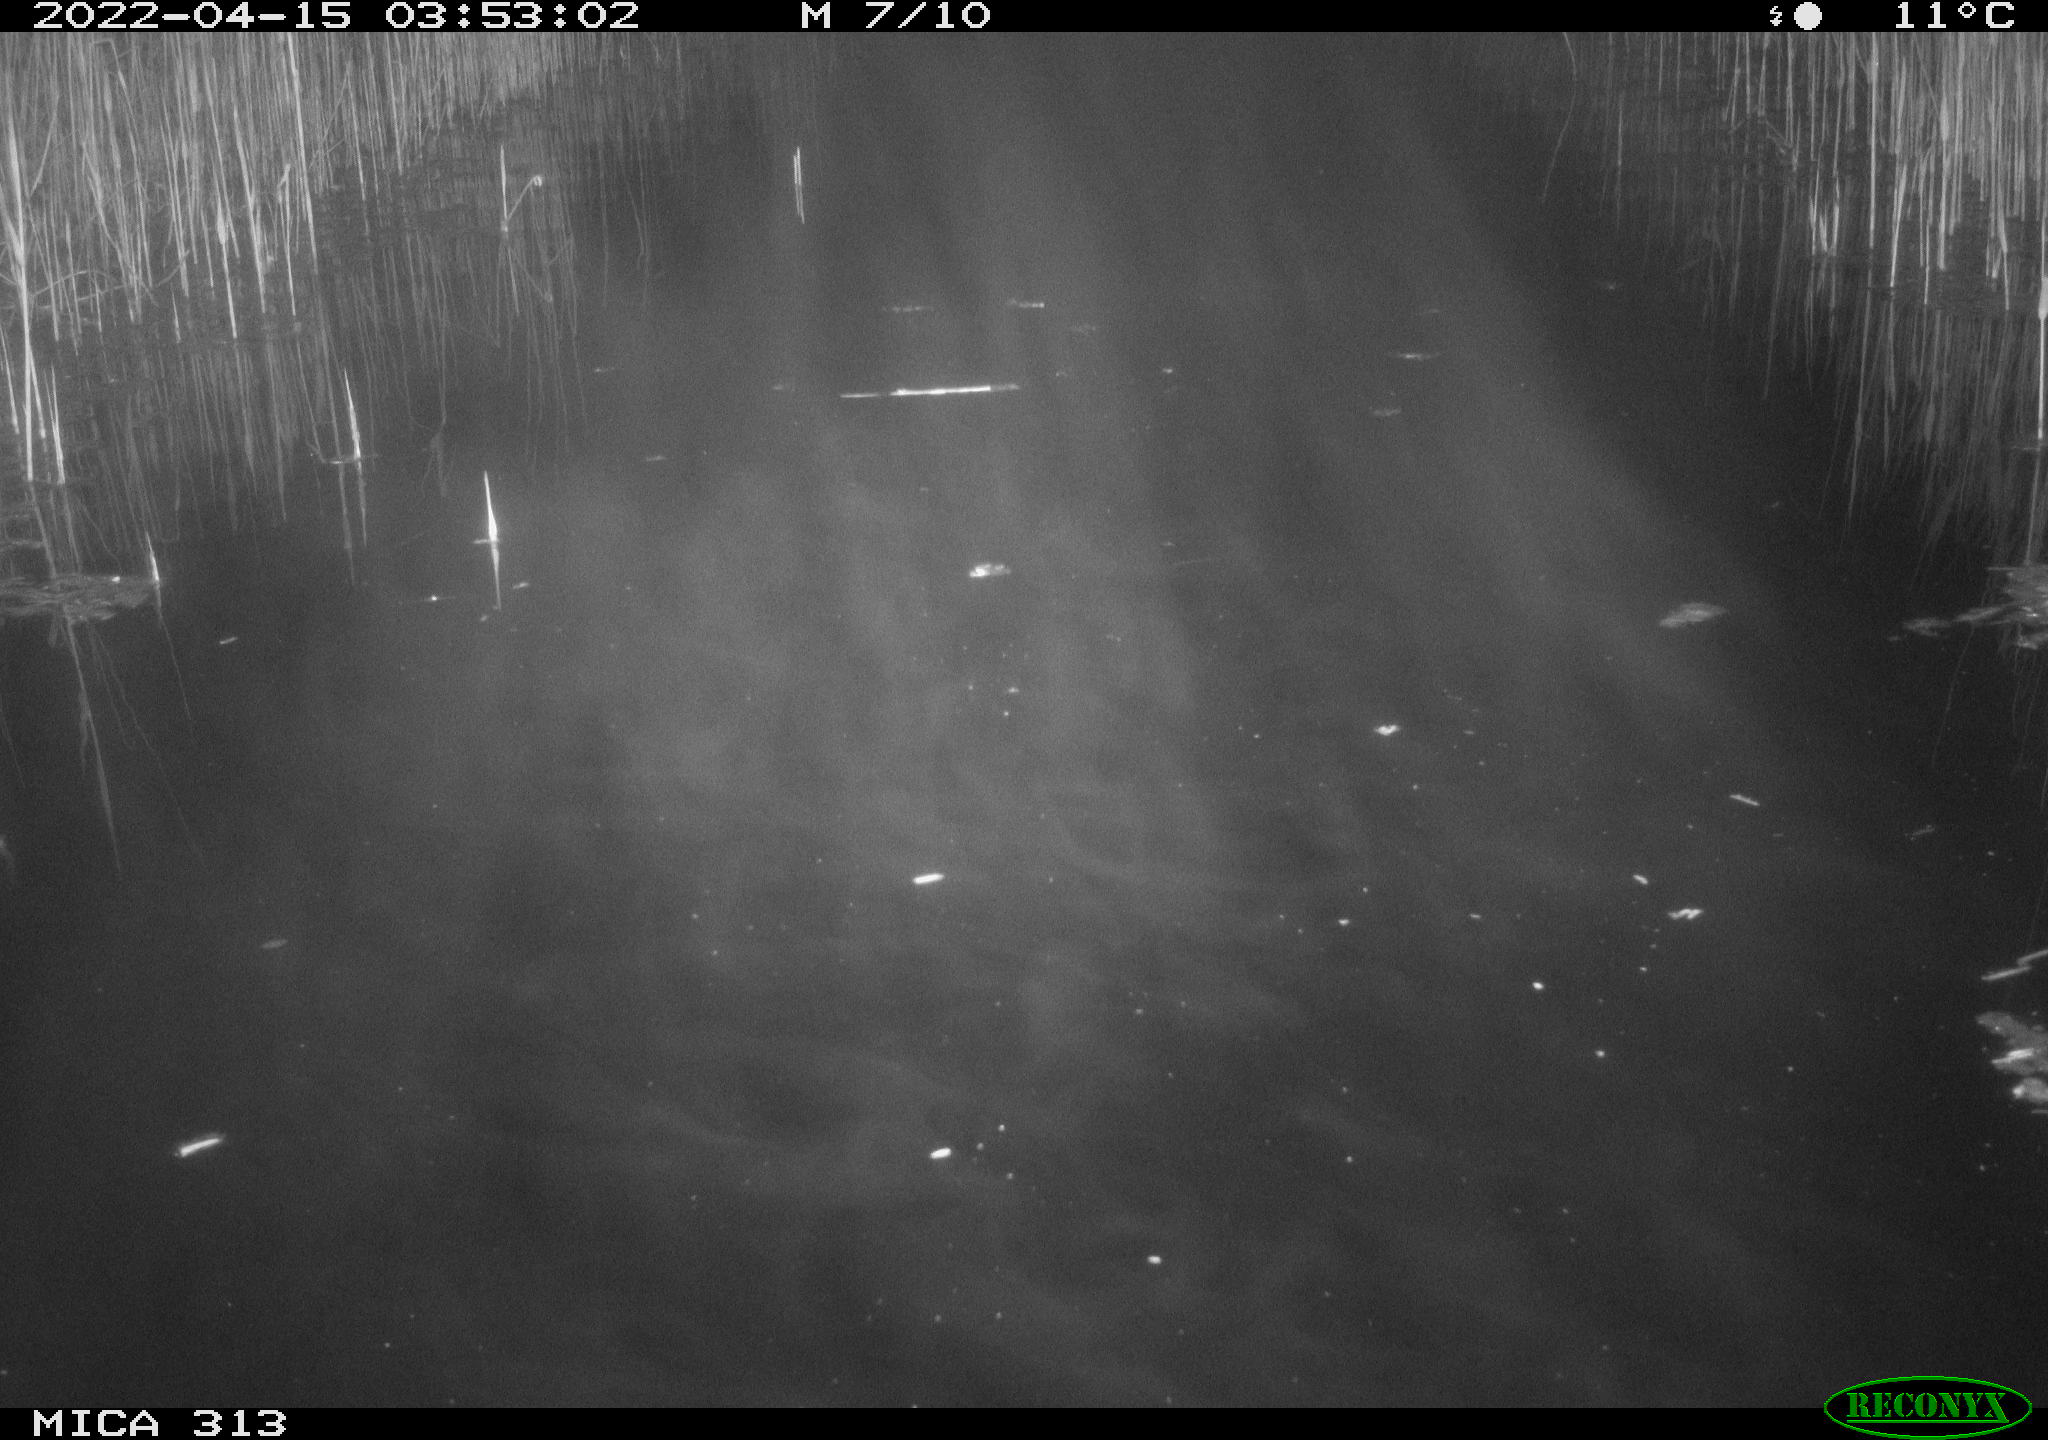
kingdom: Animalia
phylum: Chordata
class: Aves
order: Gruiformes
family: Rallidae
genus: Gallinula
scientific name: Gallinula chloropus
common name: Common moorhen
